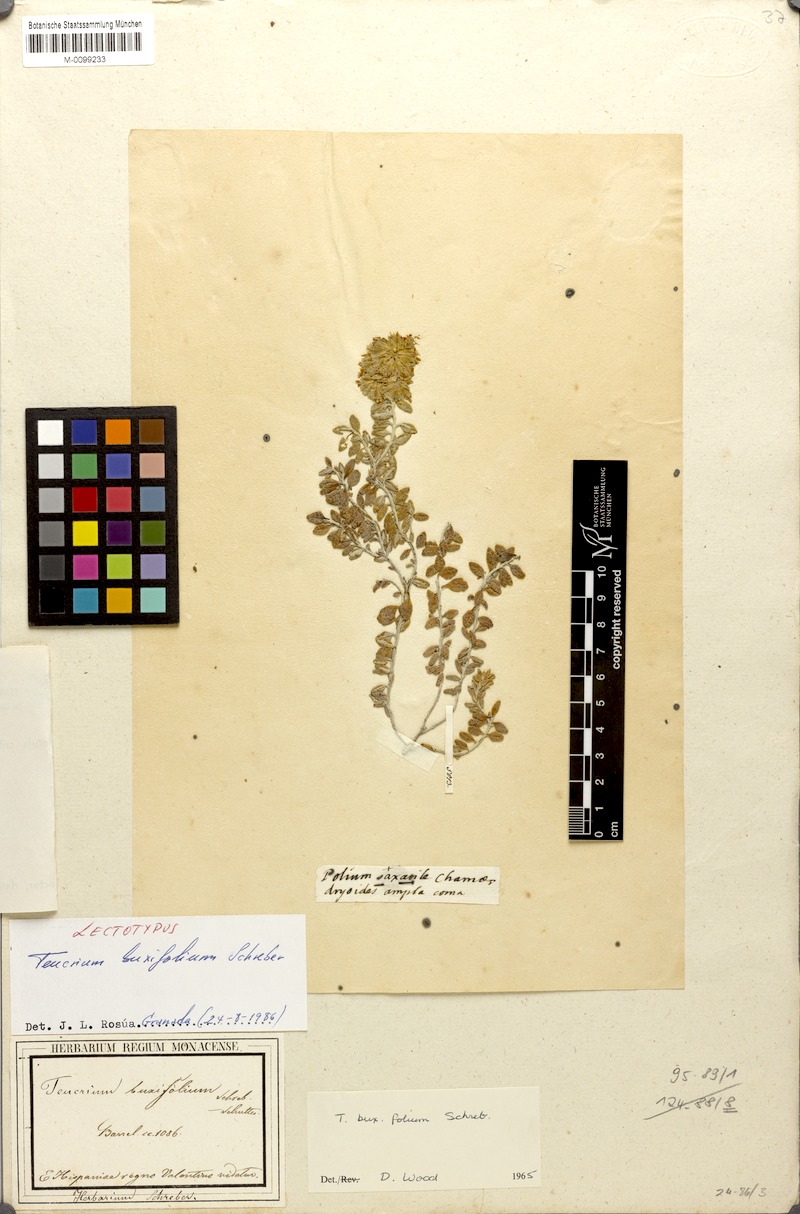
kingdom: Plantae
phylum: Tracheophyta
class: Magnoliopsida
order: Lamiales
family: Lamiaceae
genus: Teucrium
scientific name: Teucrium buxifolium
